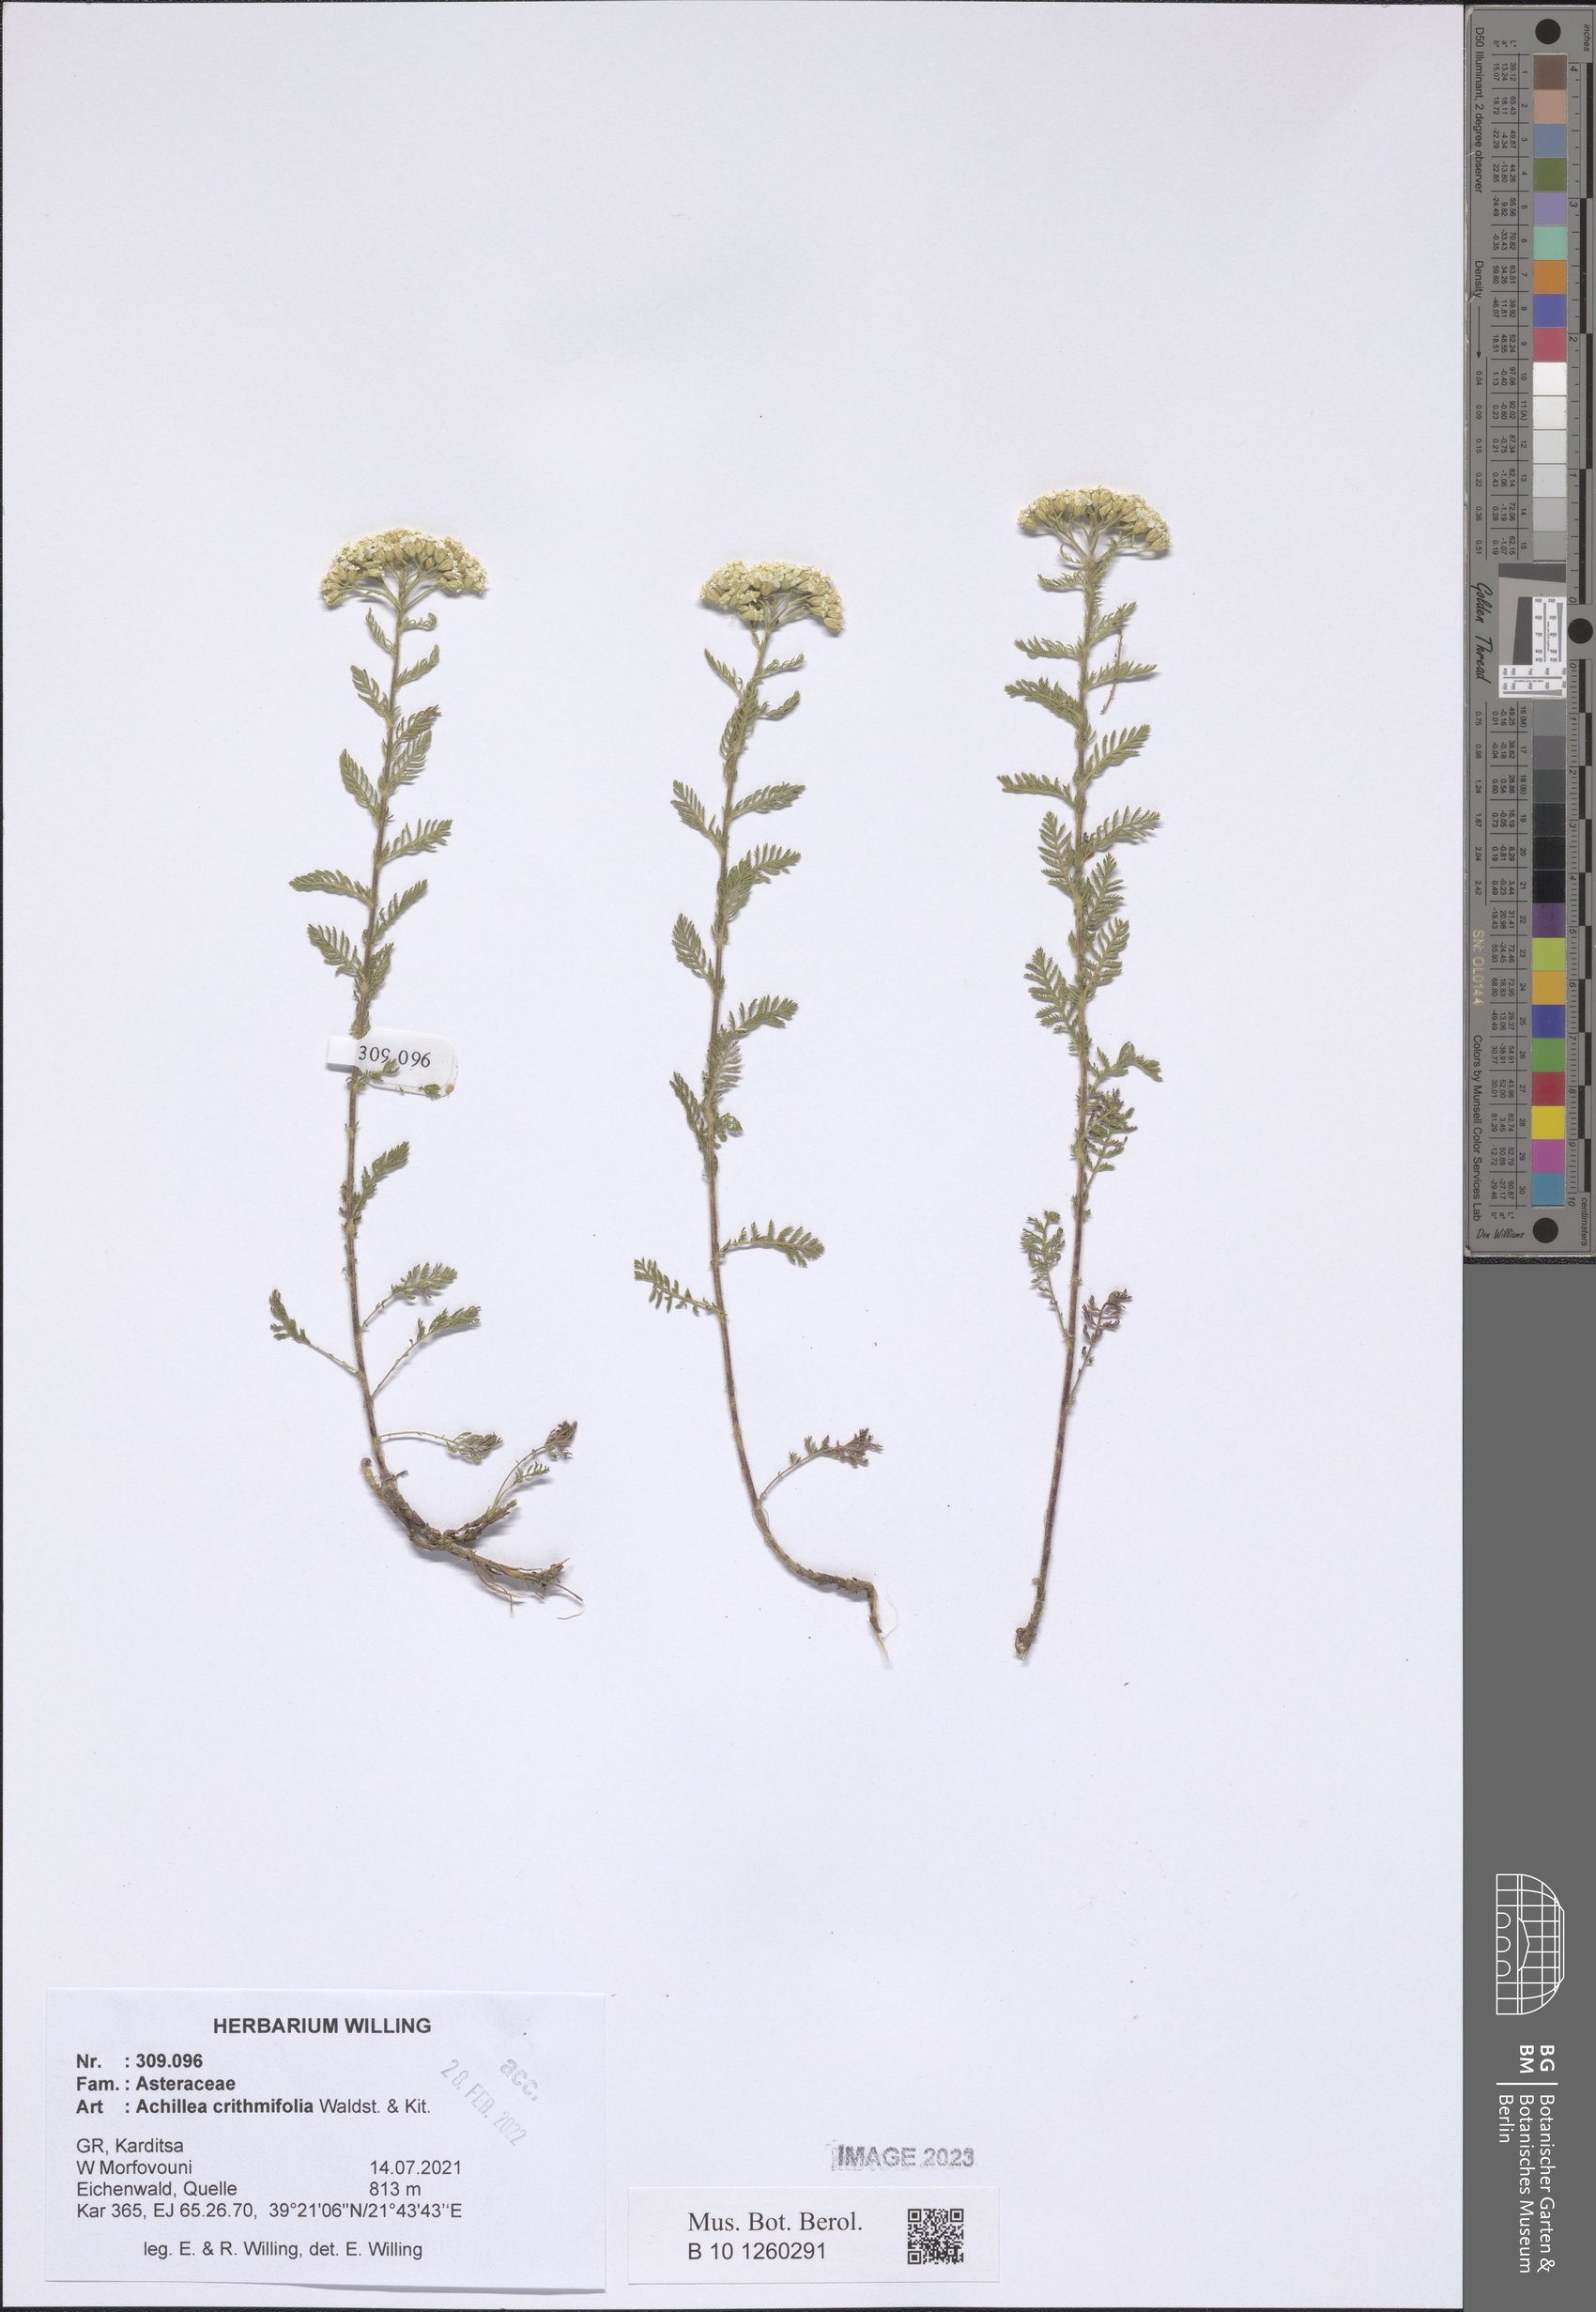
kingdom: Plantae
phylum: Tracheophyta
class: Magnoliopsida
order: Asterales
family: Asteraceae
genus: Achillea
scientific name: Achillea crithmifolia
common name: Yarrow
